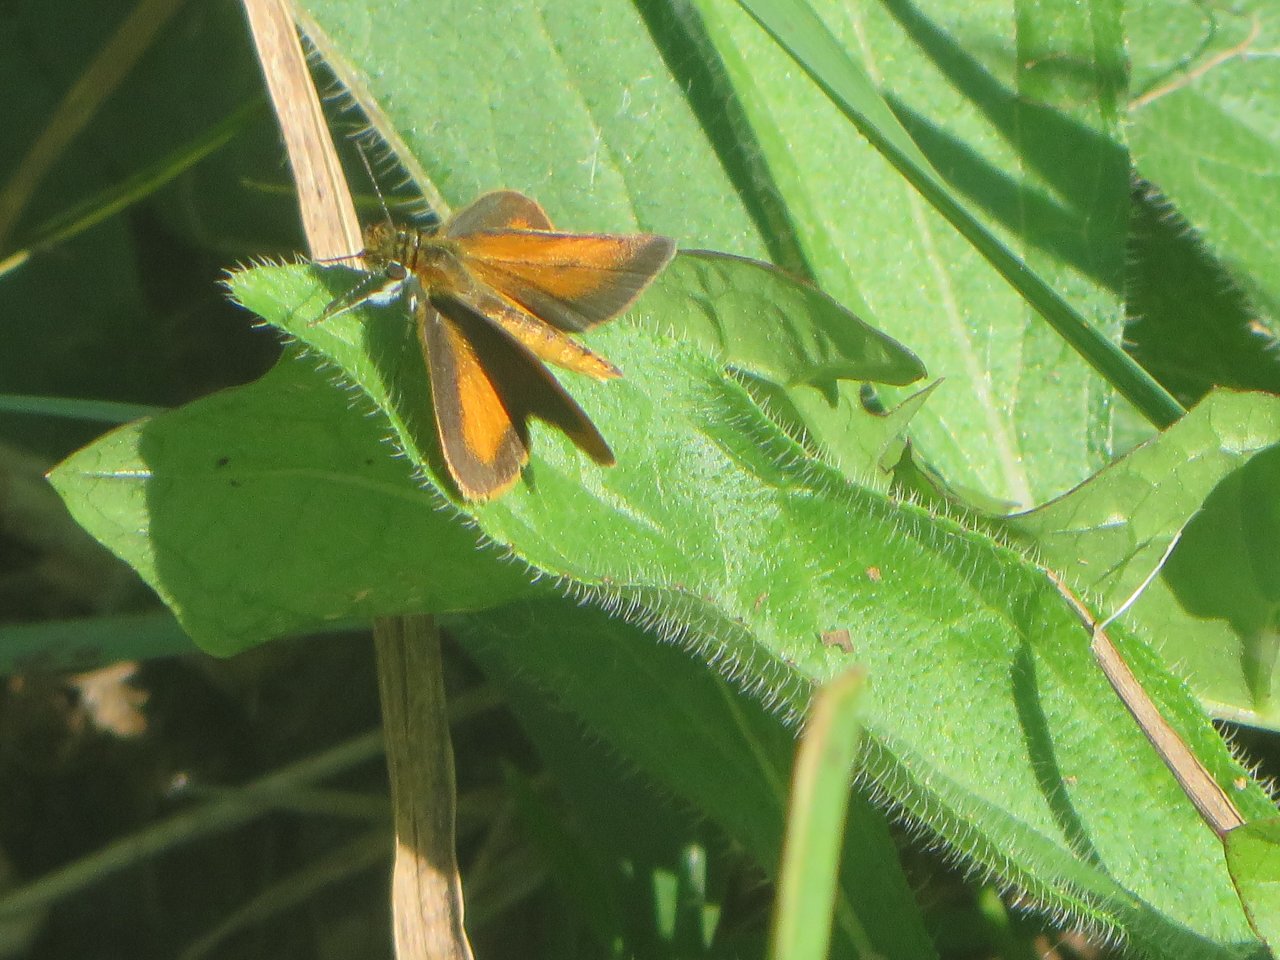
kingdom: Animalia
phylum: Arthropoda
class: Insecta
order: Lepidoptera
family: Hesperiidae
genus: Ancyloxypha
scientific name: Ancyloxypha numitor
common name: Least Skipper
